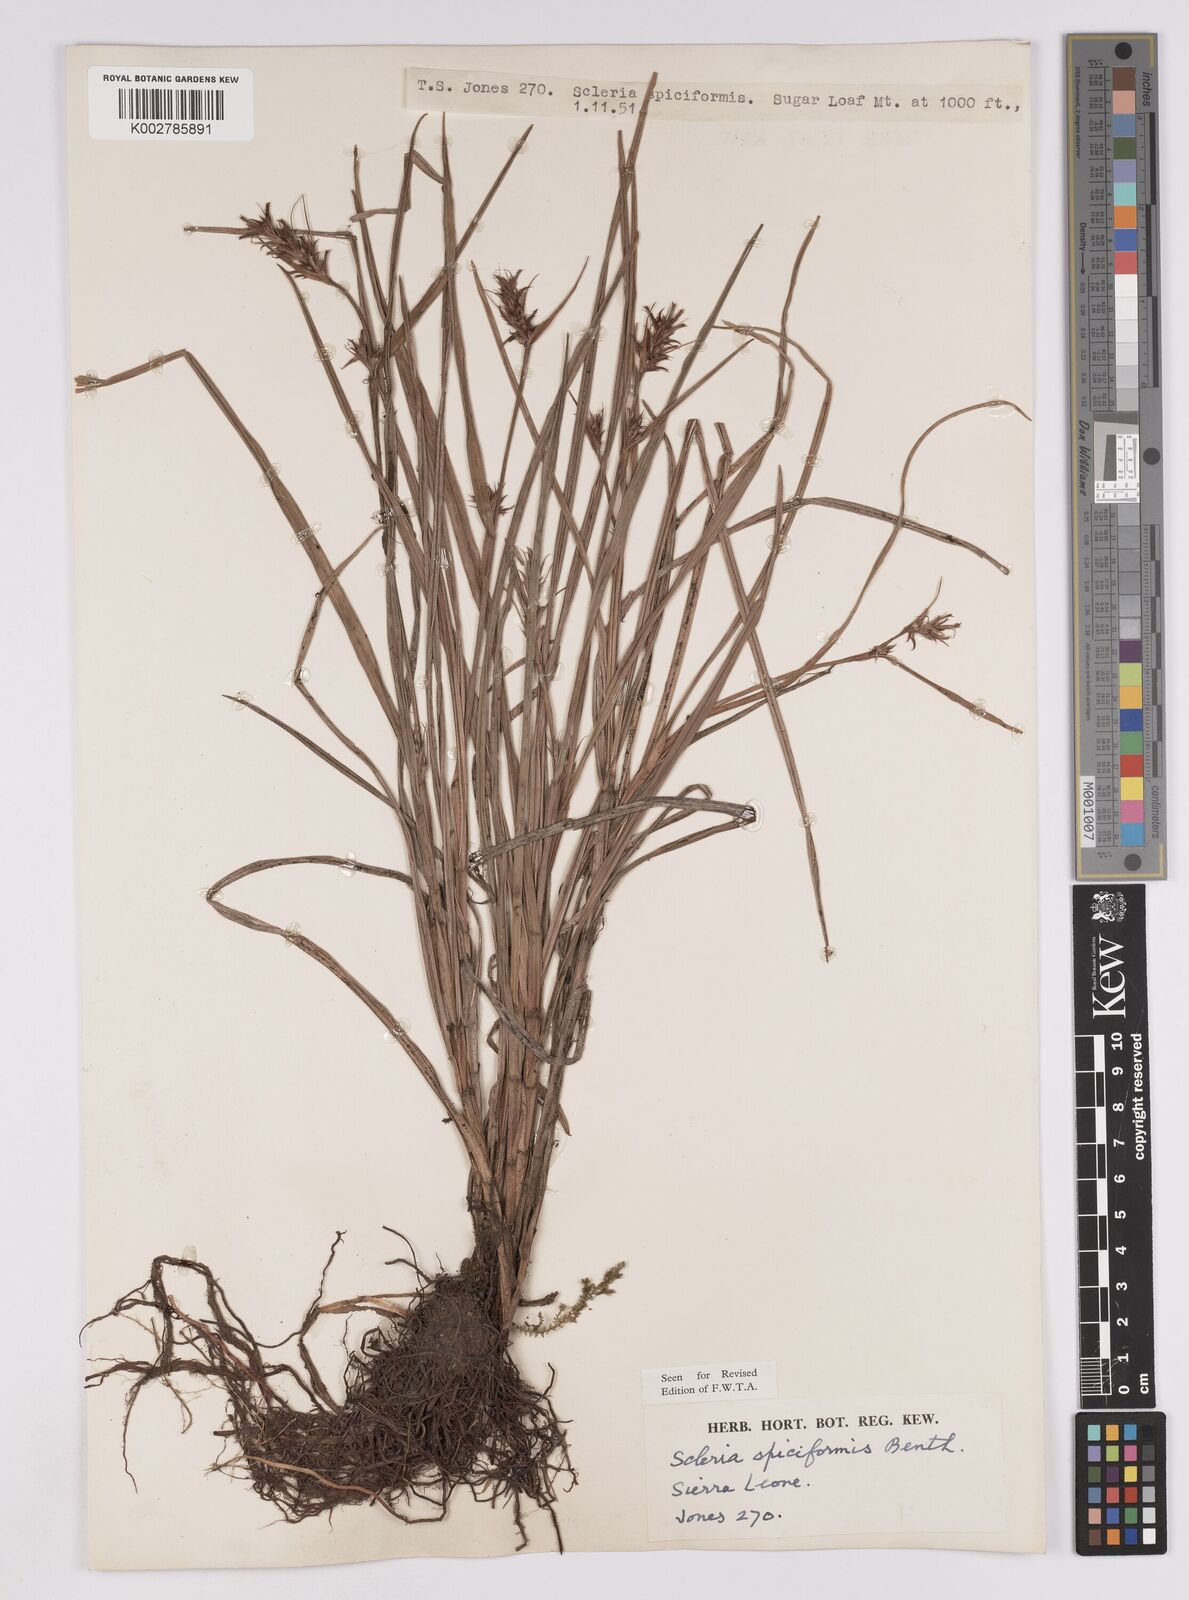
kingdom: Plantae
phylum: Tracheophyta
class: Liliopsida
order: Poales
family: Cyperaceae
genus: Scleria
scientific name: Scleria spiciformis
